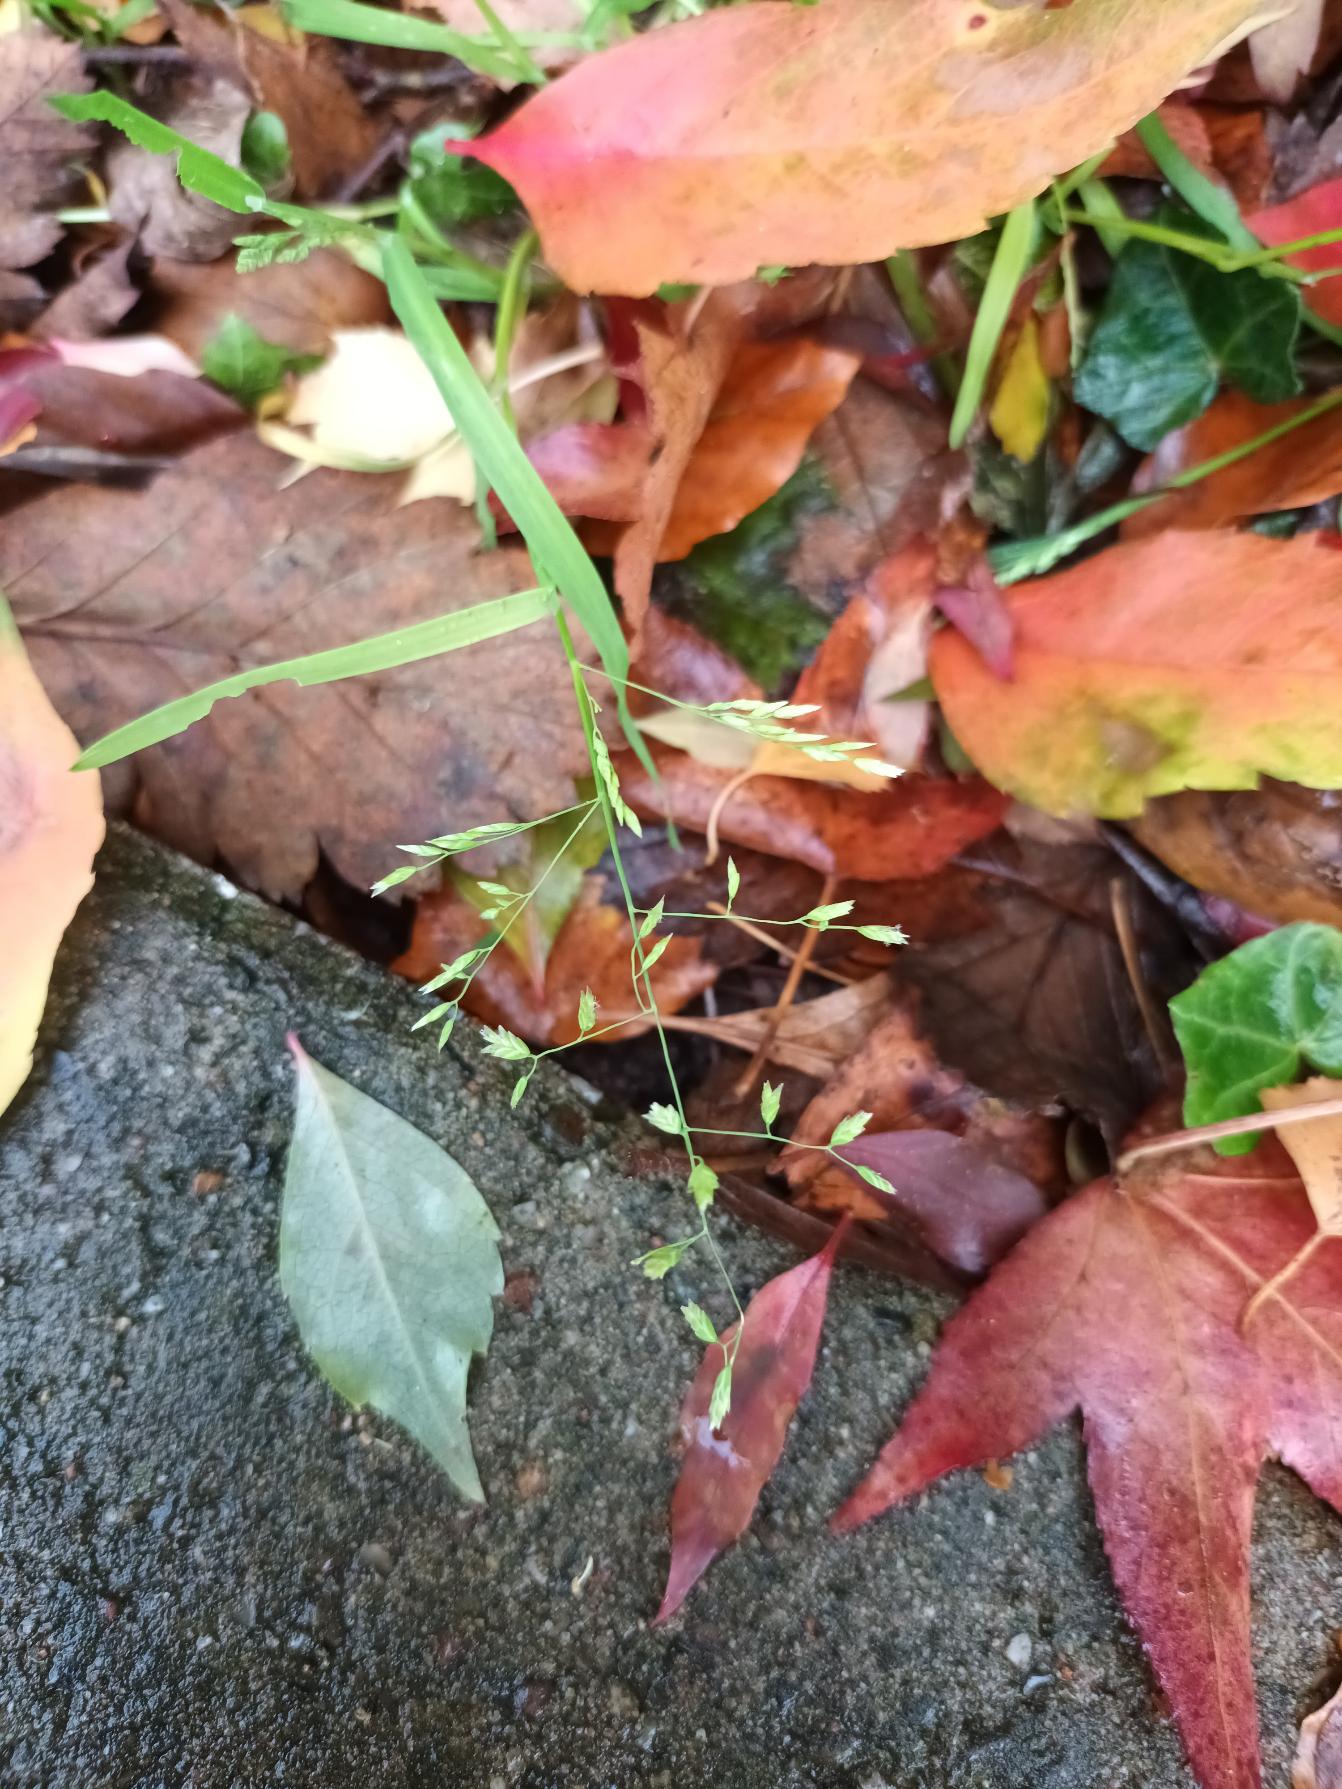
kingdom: Plantae
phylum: Tracheophyta
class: Liliopsida
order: Poales
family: Poaceae
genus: Poa
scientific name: Poa annua
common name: Enårig rapgræs
